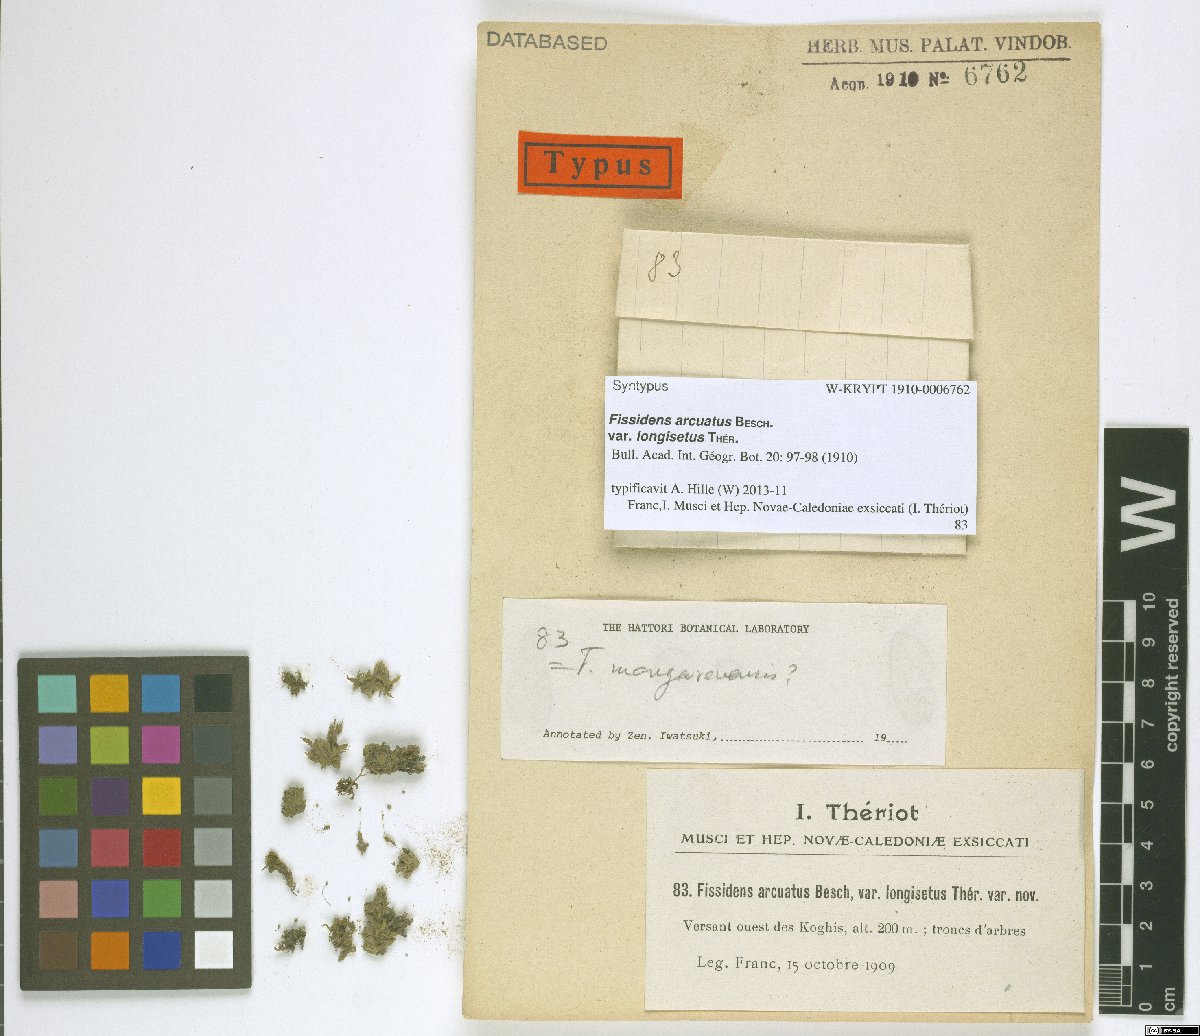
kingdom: Plantae
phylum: Bryophyta
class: Bryopsida
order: Dicranales
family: Fissidentaceae
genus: Fissidens
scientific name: Fissidens oblongifolius
